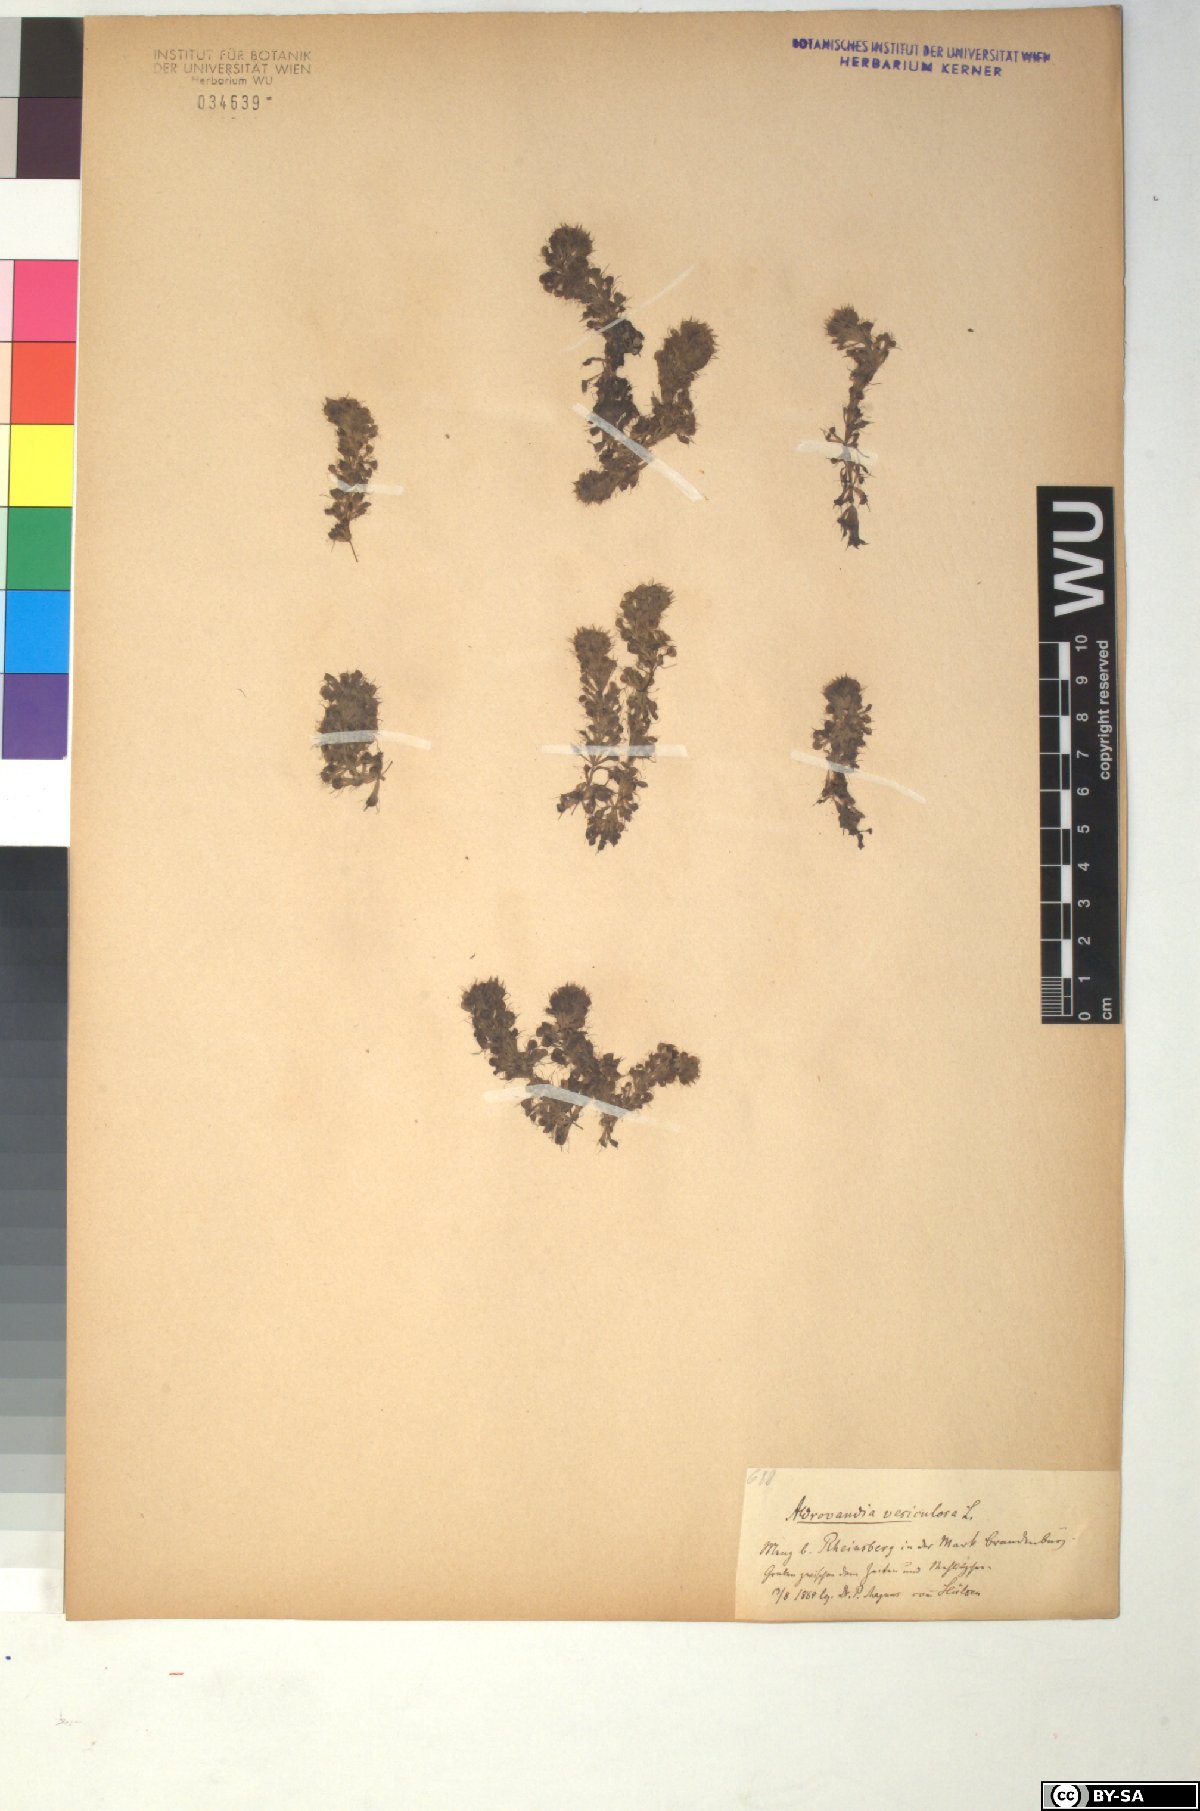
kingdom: Plantae
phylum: Tracheophyta
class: Magnoliopsida
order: Caryophyllales
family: Droseraceae
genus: Aldrovanda
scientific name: Aldrovanda vesiculosa
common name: Waterwheel plant
